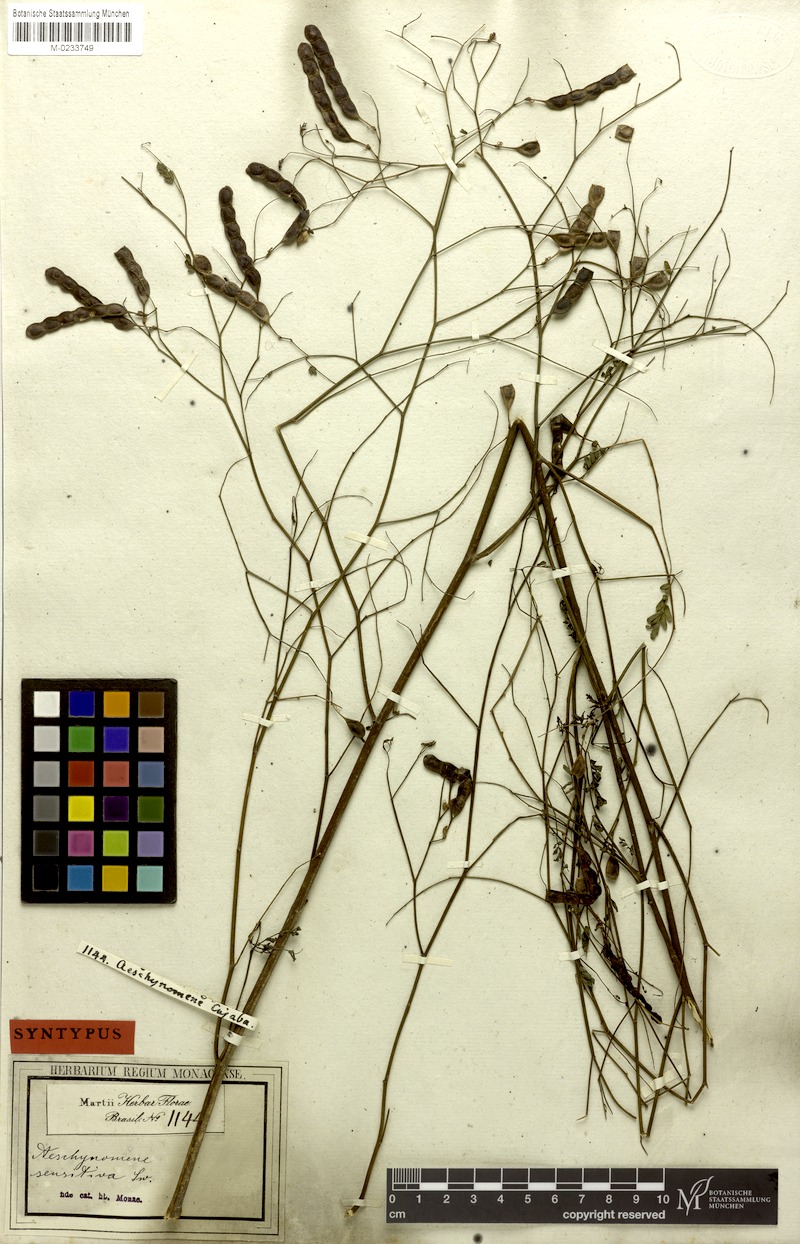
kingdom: Plantae
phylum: Tracheophyta
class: Magnoliopsida
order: Fabales
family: Fabaceae
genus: Aeschynomene
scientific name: Aeschynomene sensitiva
